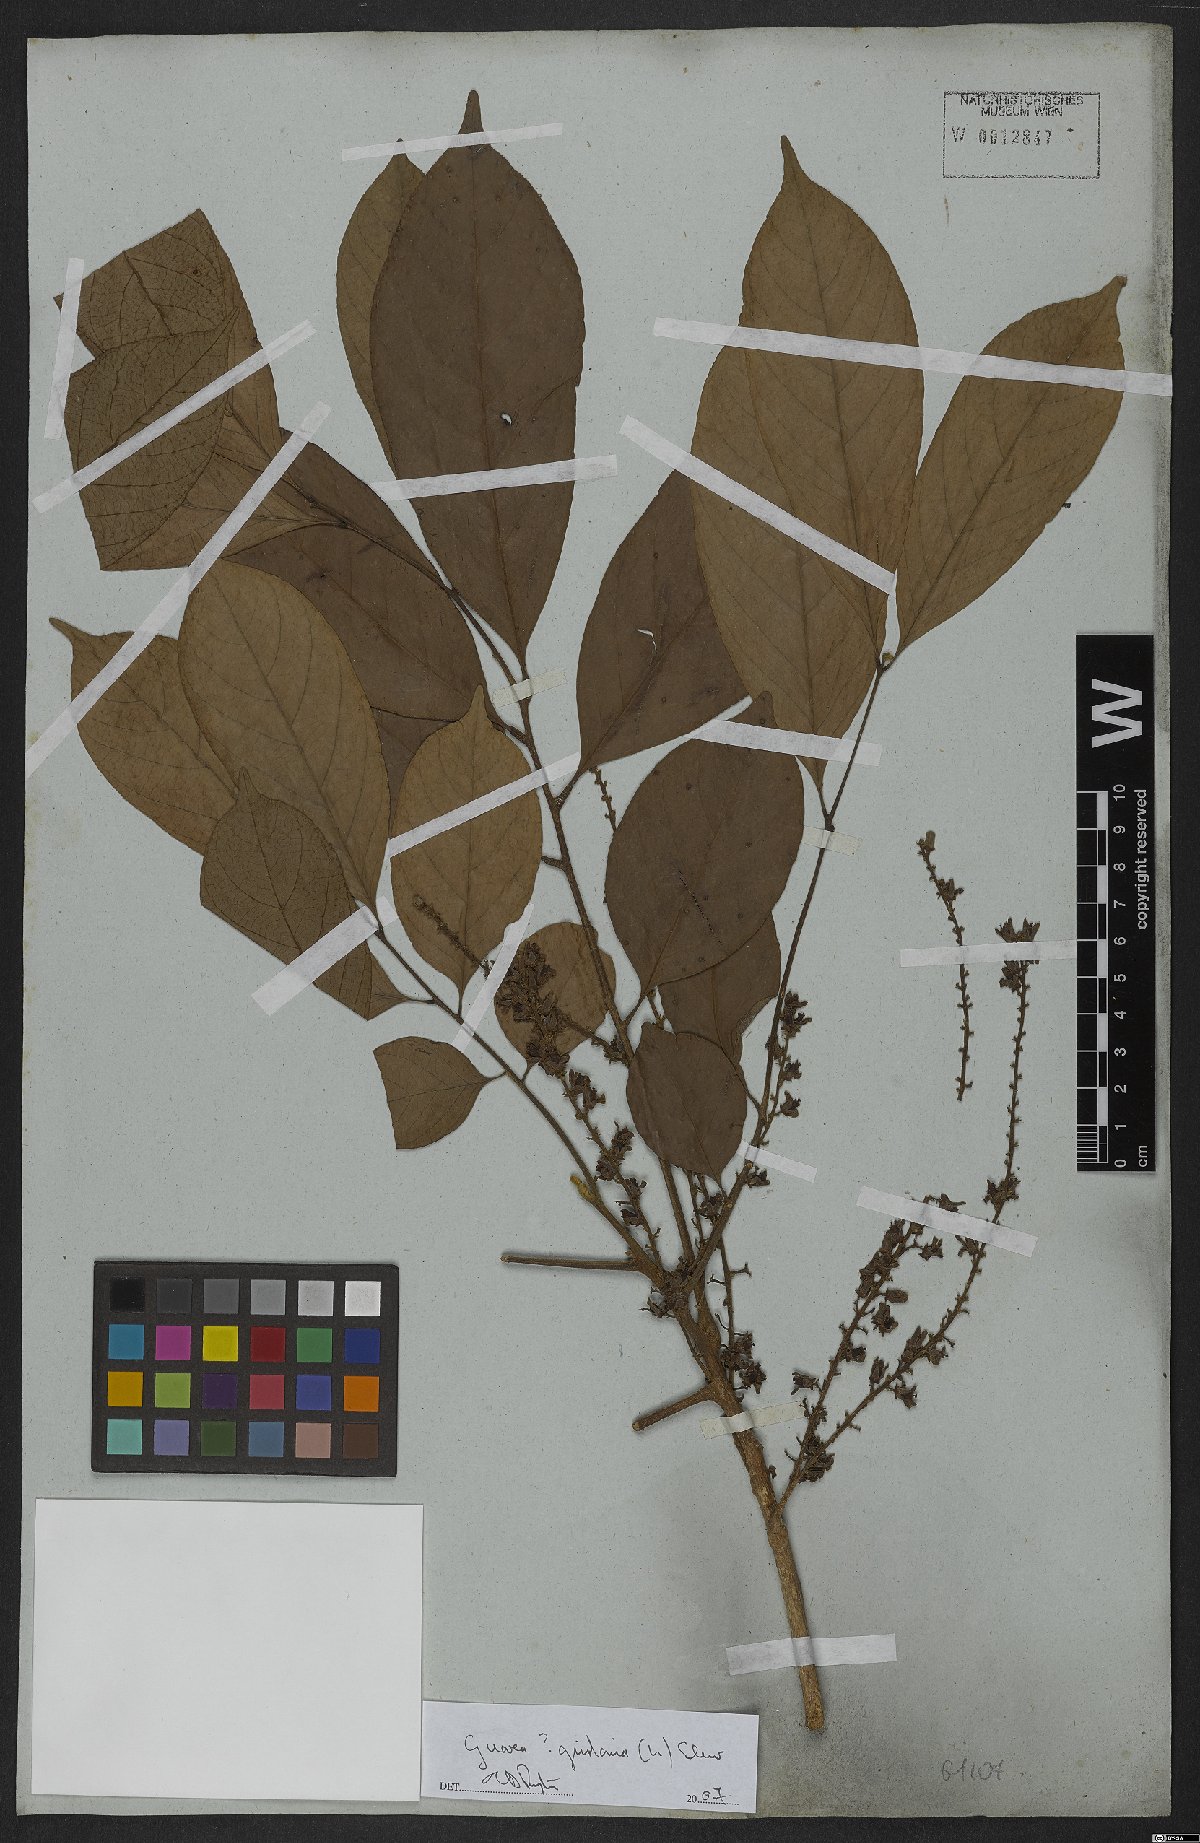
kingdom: Plantae
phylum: Tracheophyta
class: Magnoliopsida
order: Sapindales
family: Meliaceae
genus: Guarea
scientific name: Guarea guidonia
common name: American muskwood
